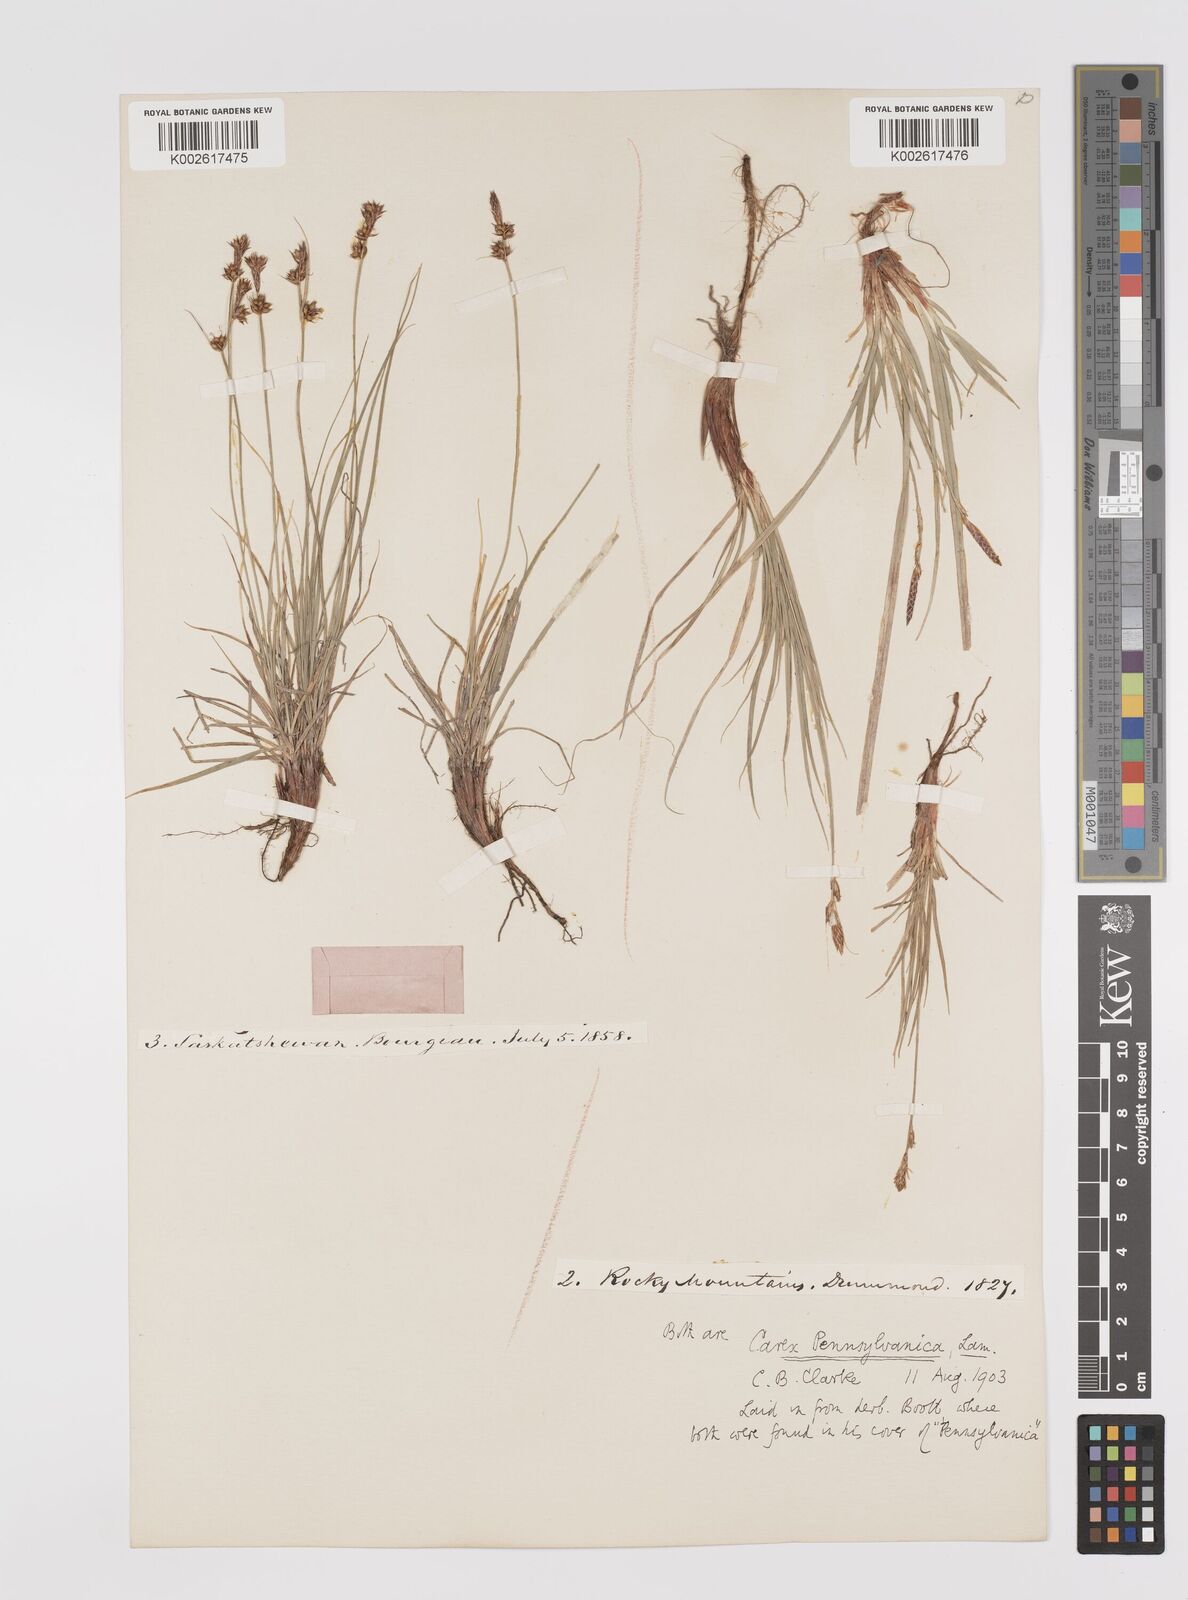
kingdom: Plantae
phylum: Tracheophyta
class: Liliopsida
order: Poales
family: Cyperaceae
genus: Carex
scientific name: Carex pensylvanica
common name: Common oak sedge
